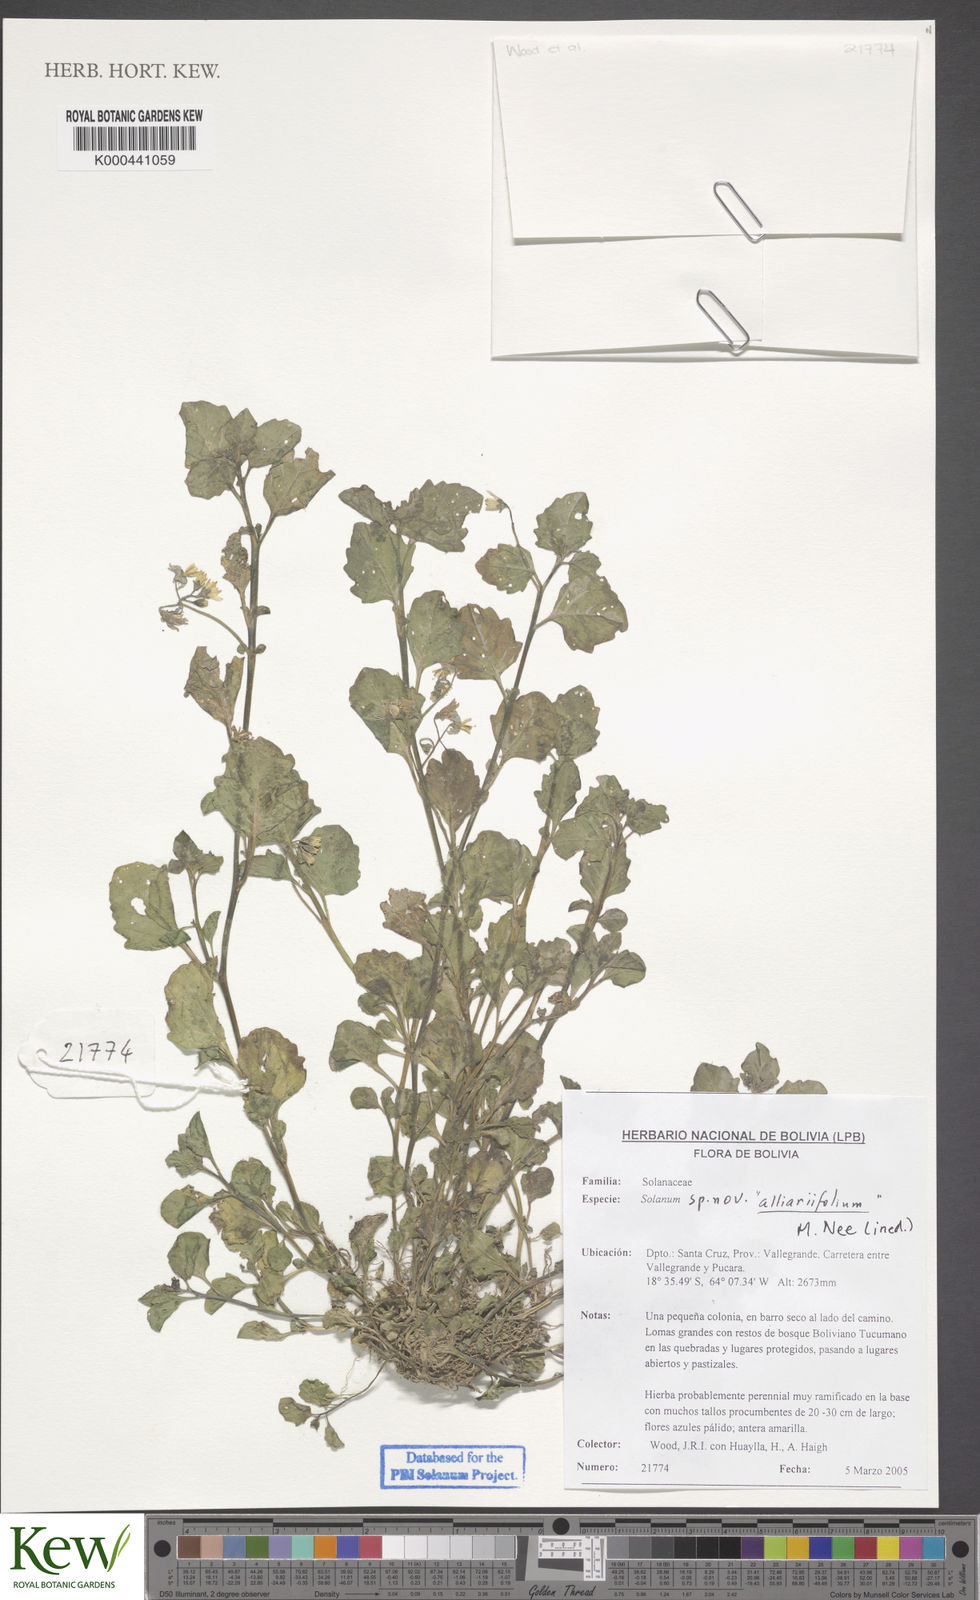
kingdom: Plantae
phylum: Tracheophyta
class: Magnoliopsida
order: Solanales
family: Solanaceae
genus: Solanum
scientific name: Solanum
